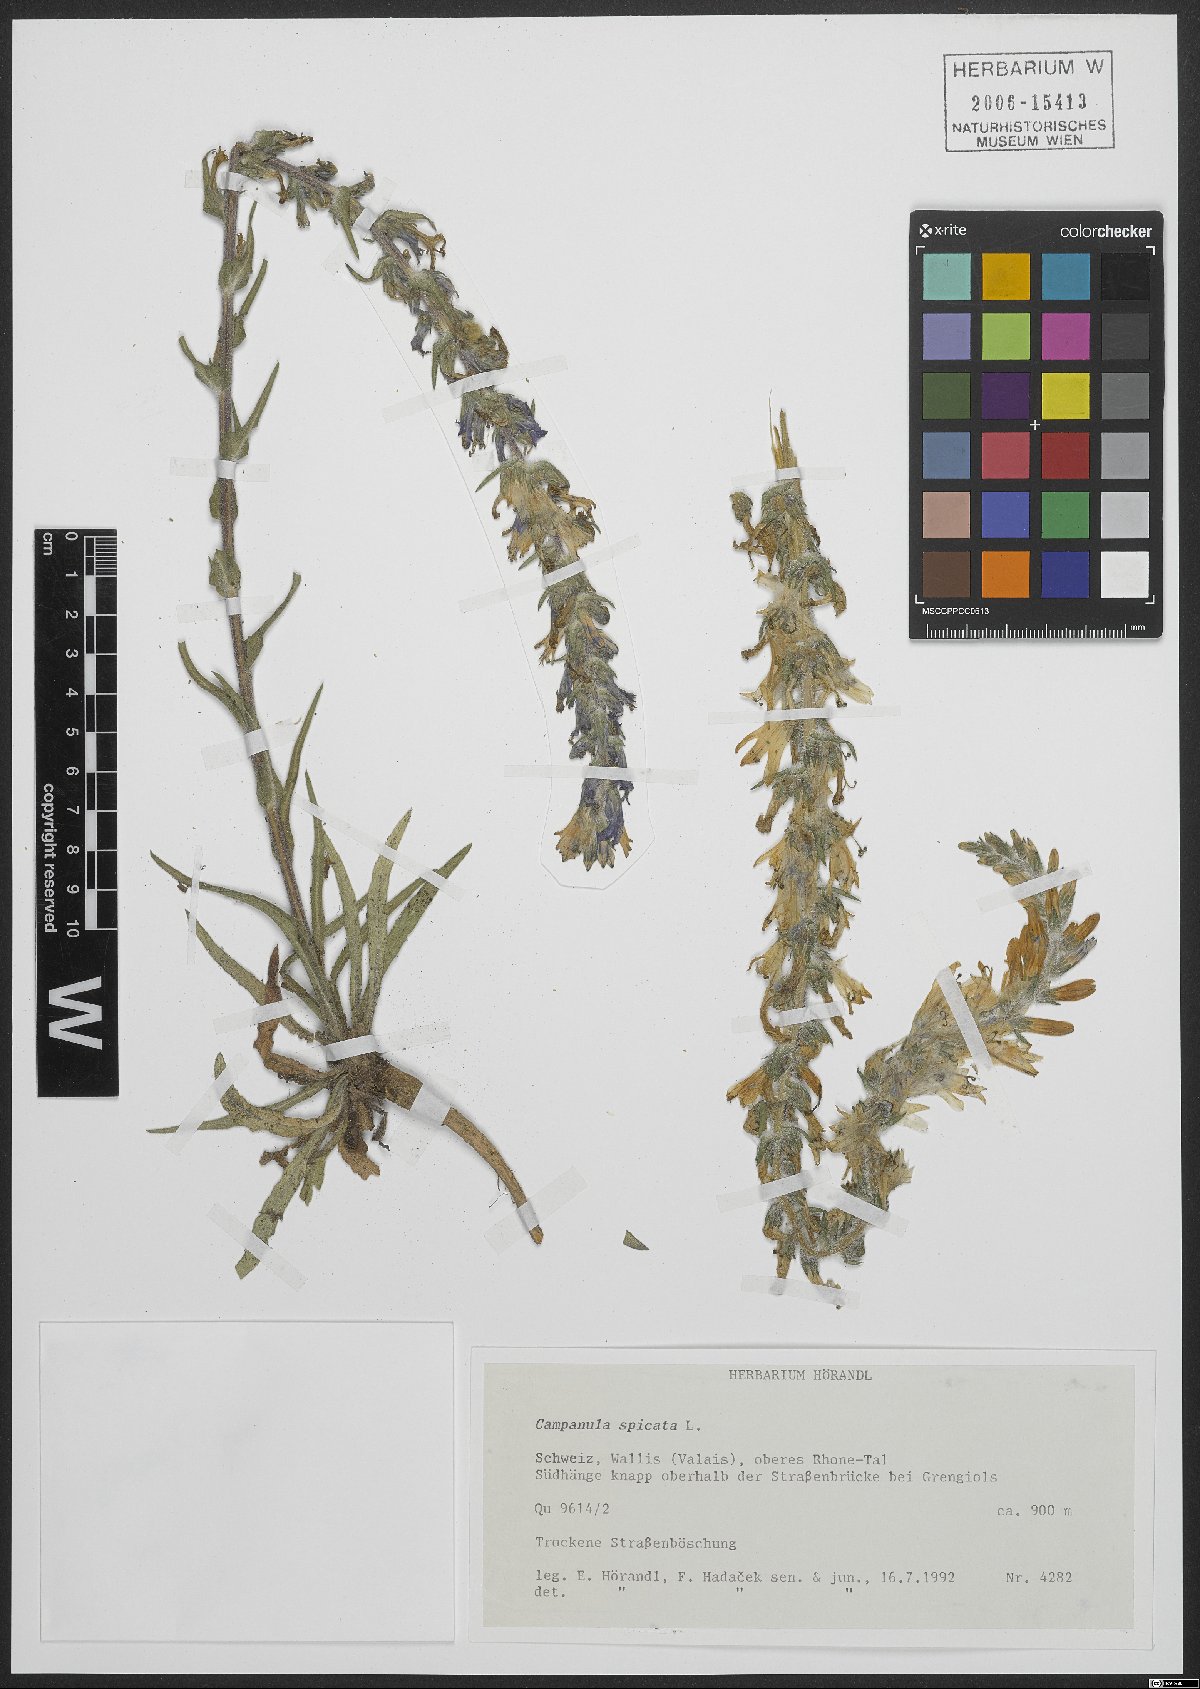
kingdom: Plantae
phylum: Tracheophyta
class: Magnoliopsida
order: Asterales
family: Campanulaceae
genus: Campanula
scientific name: Campanula spicata
